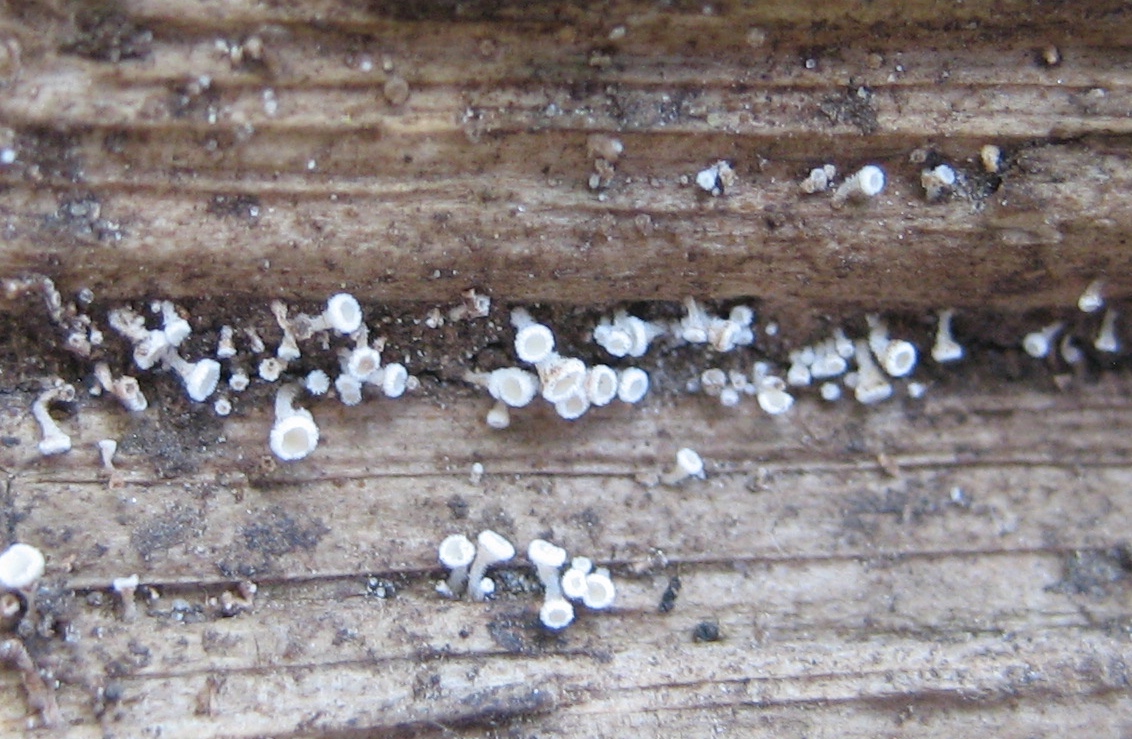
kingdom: Fungi
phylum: Ascomycota
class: Leotiomycetes
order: Helotiales
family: Lachnaceae
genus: Lachnum
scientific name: Lachnum
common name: frynseskive
